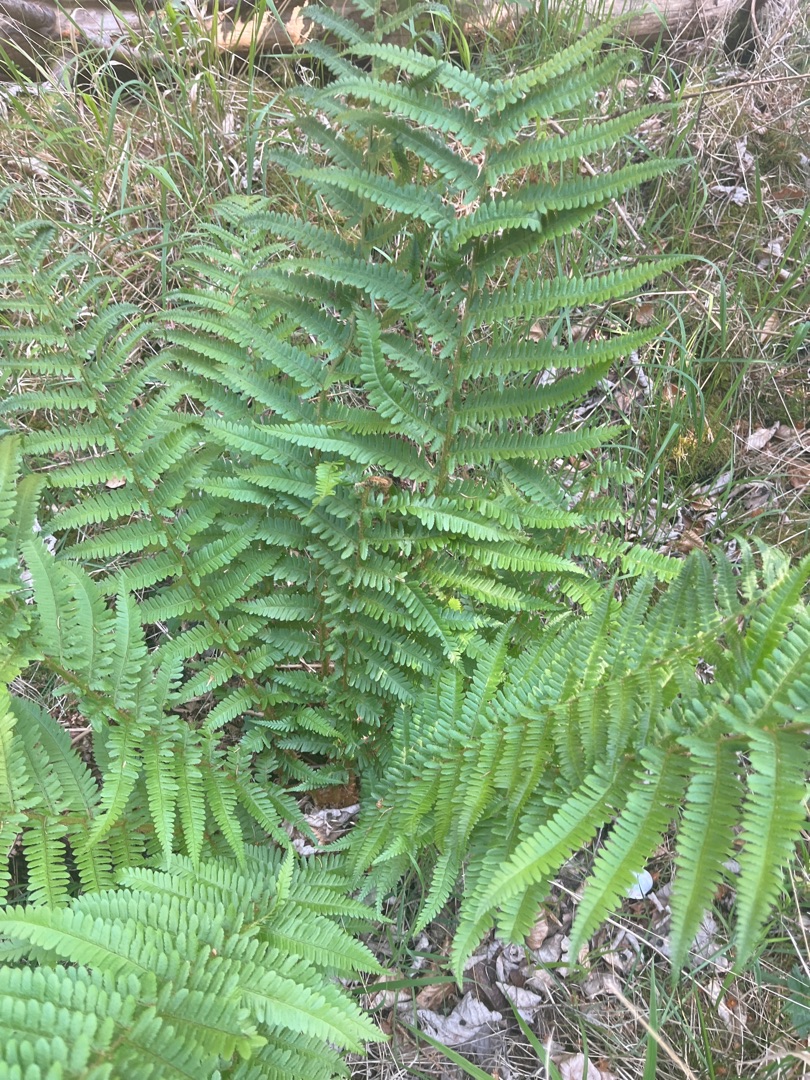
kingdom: Plantae
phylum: Tracheophyta
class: Polypodiopsida
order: Polypodiales
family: Dryopteridaceae
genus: Dryopteris
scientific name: Dryopteris filix-mas
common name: Almindelig mangeløv
